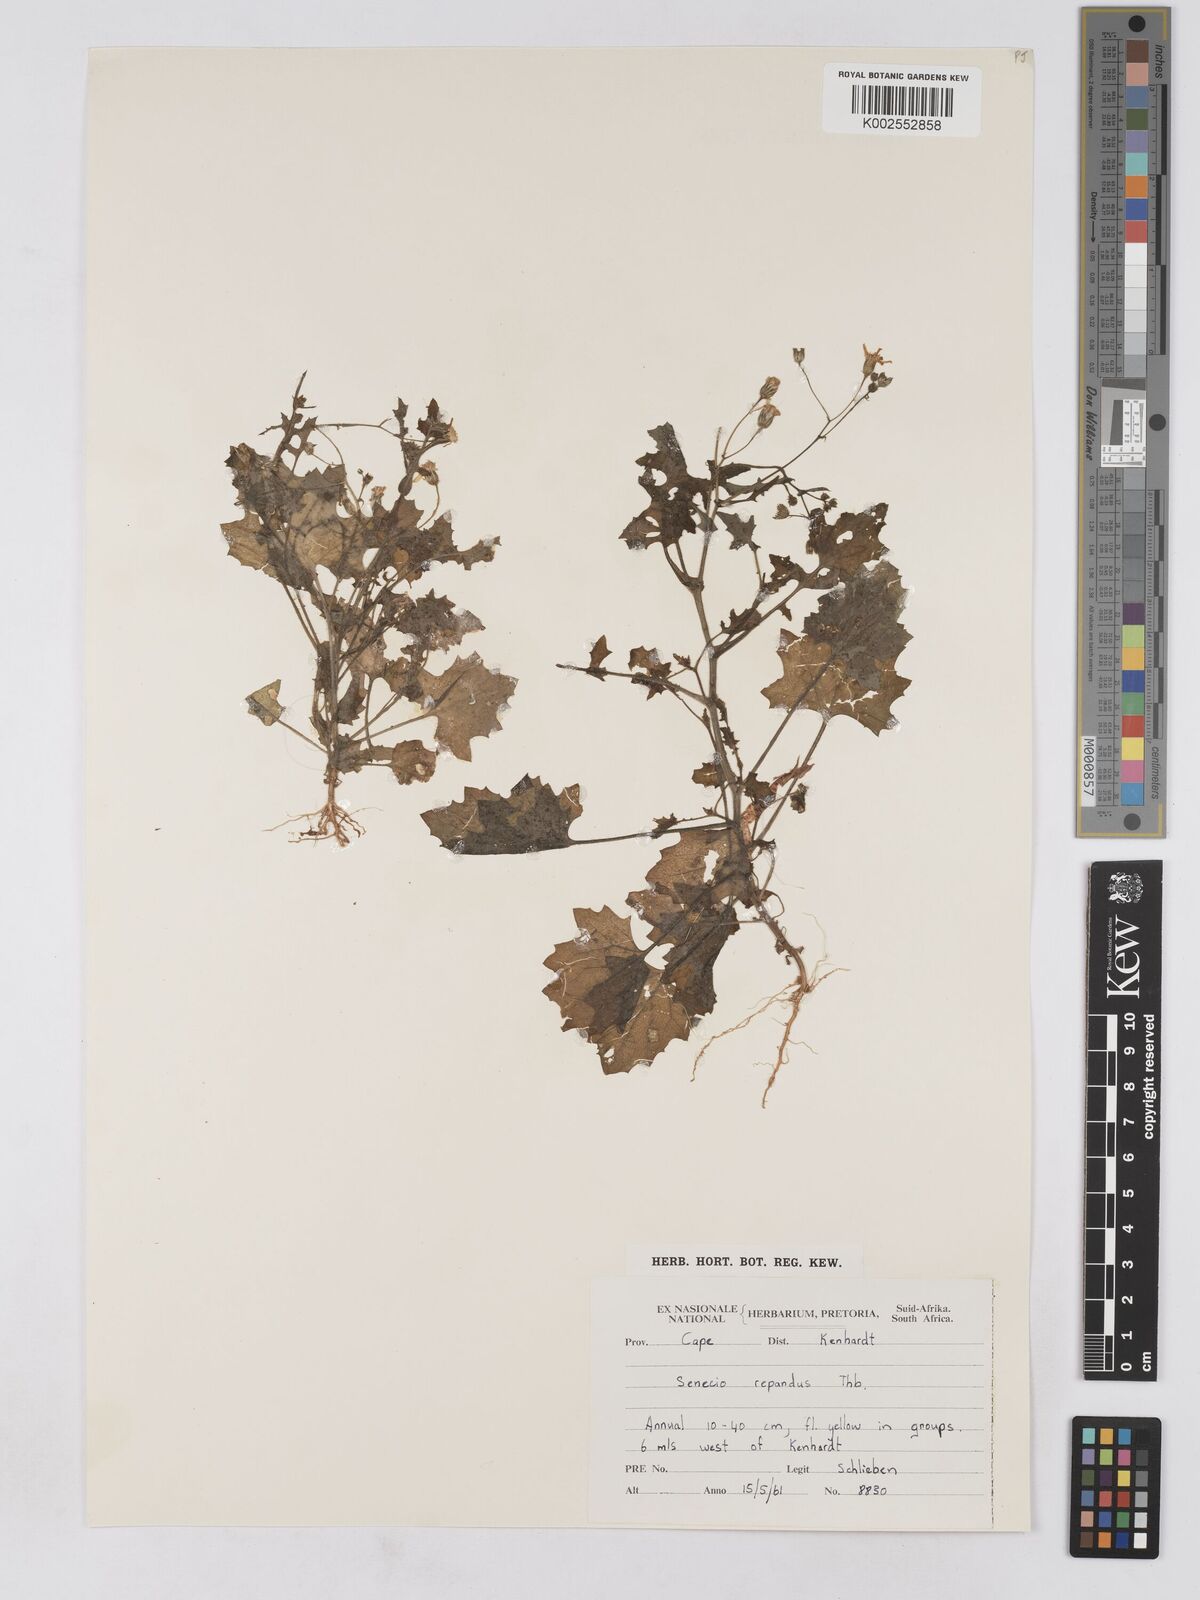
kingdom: Plantae
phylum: Tracheophyta
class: Magnoliopsida
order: Asterales
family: Asteraceae
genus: Senecio
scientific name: Senecio repandus
